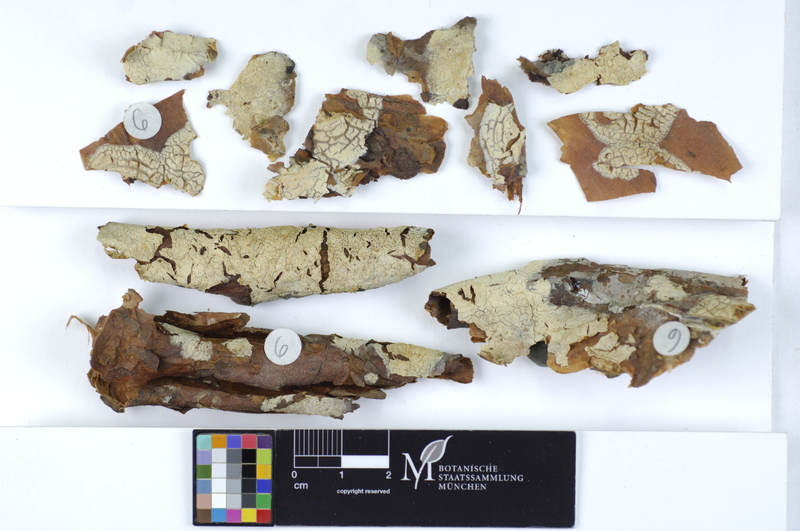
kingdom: Fungi
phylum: Basidiomycota
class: Agaricomycetes
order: Agaricales
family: Physalacriaceae
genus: Cylindrobasidium
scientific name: Cylindrobasidium evolvens
